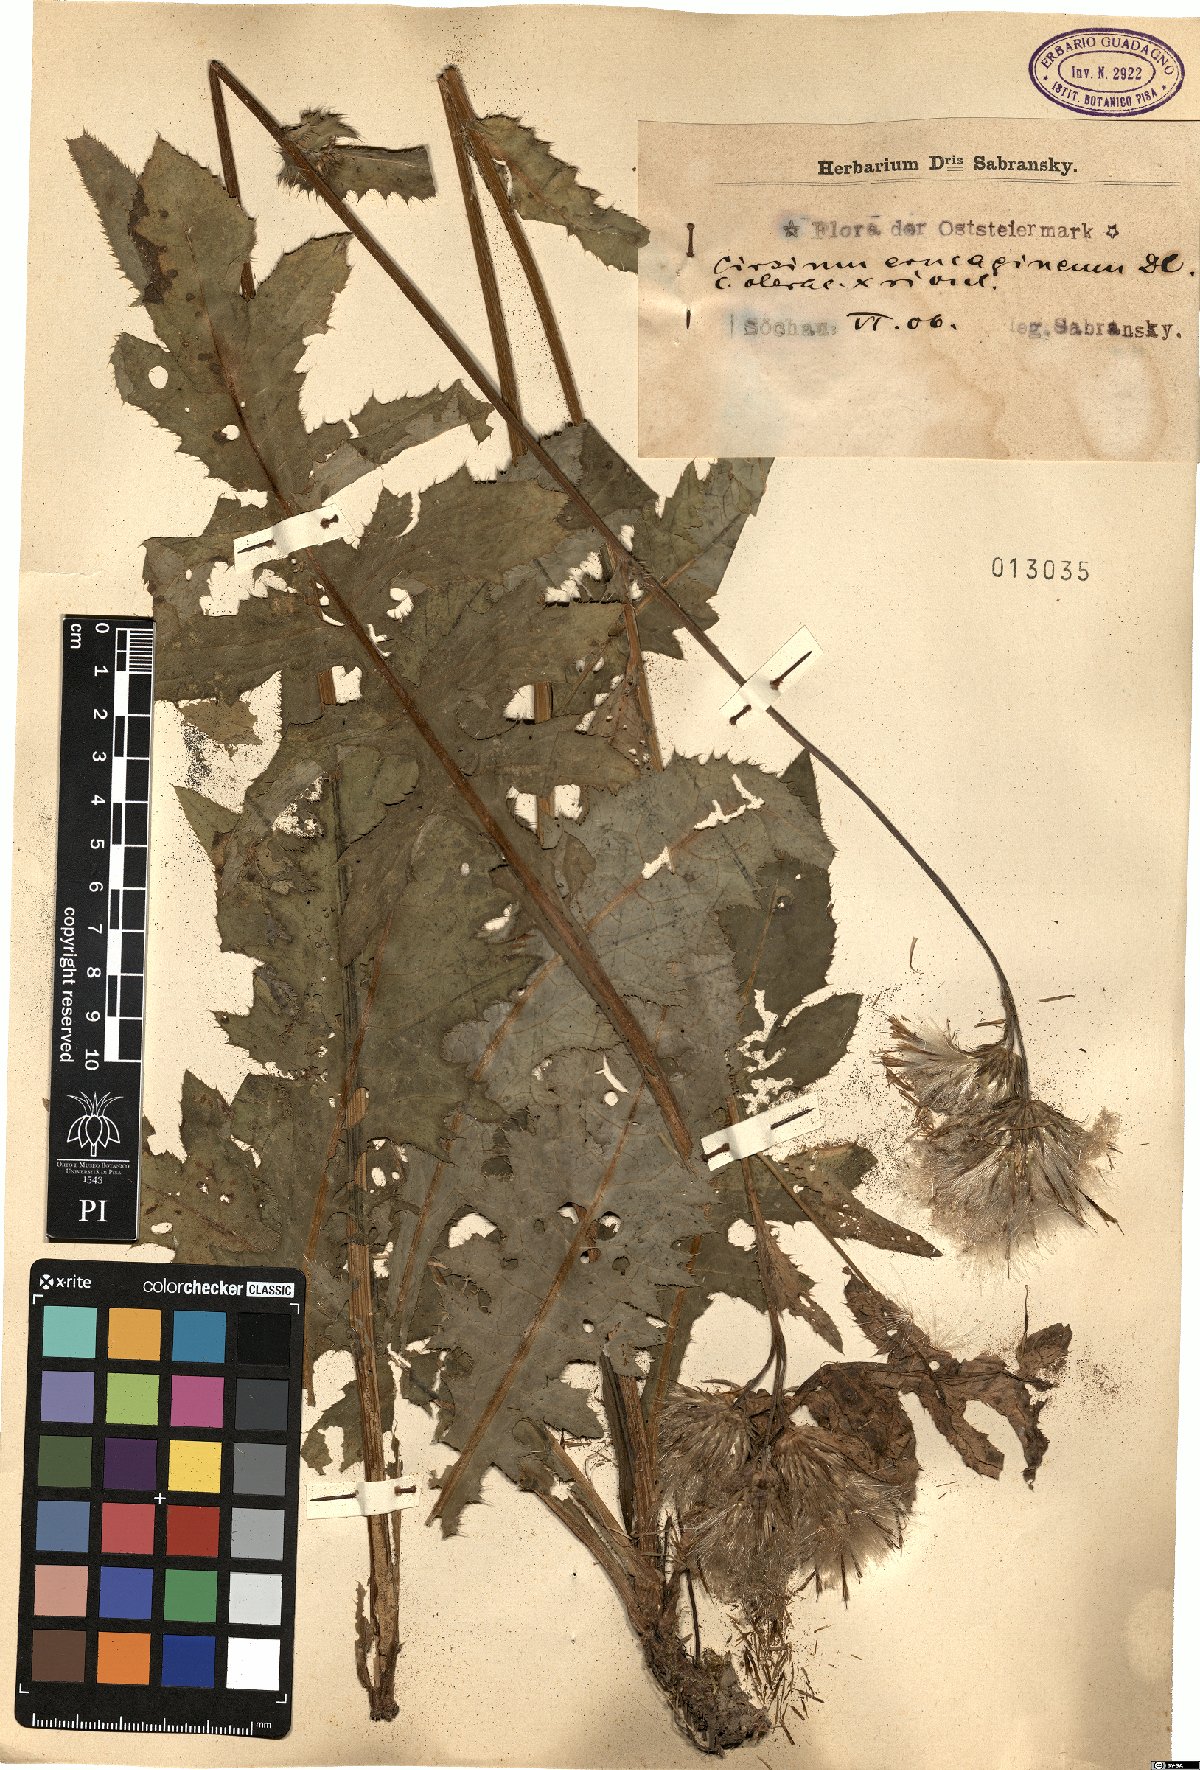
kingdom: Plantae
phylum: Tracheophyta
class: Magnoliopsida
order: Asterales
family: Asteraceae
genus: Cirsium
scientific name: Cirsium erucagineum
